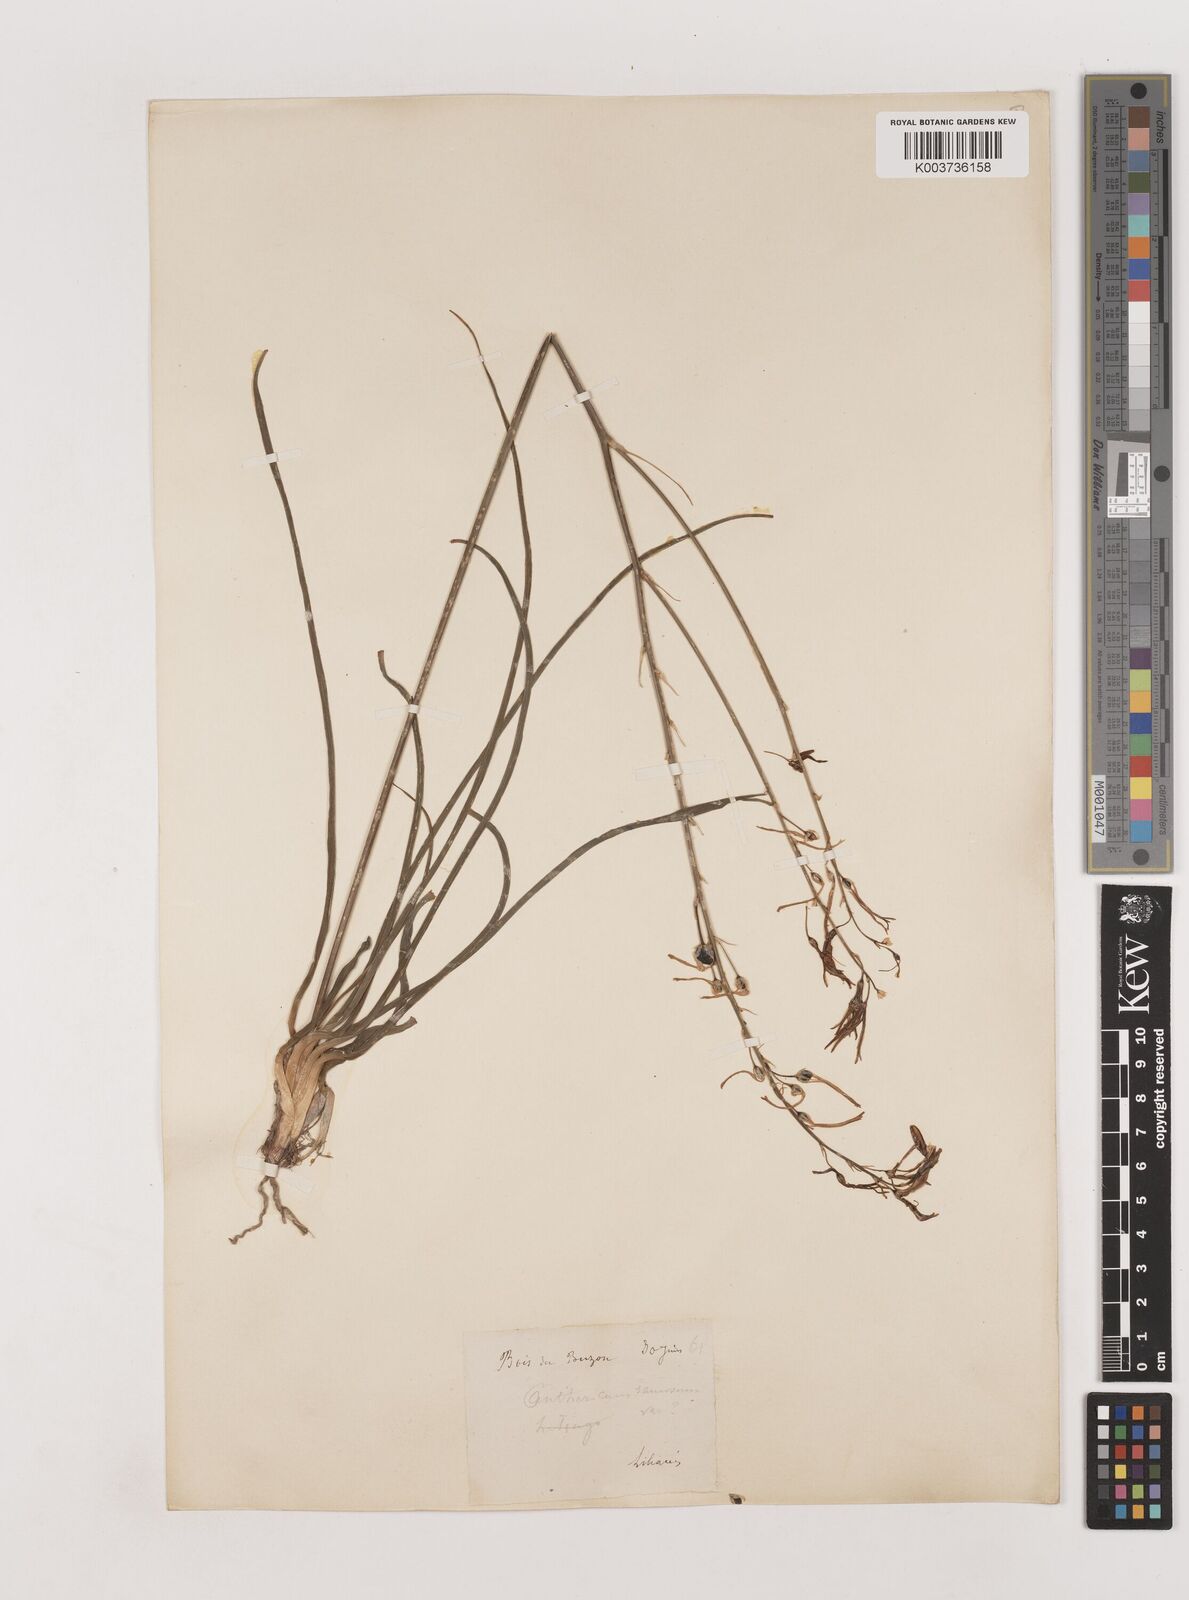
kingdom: Plantae
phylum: Tracheophyta
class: Liliopsida
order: Asparagales
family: Asparagaceae
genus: Anthericum
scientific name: Anthericum ramosum
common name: Branched st. bernard's-lily
